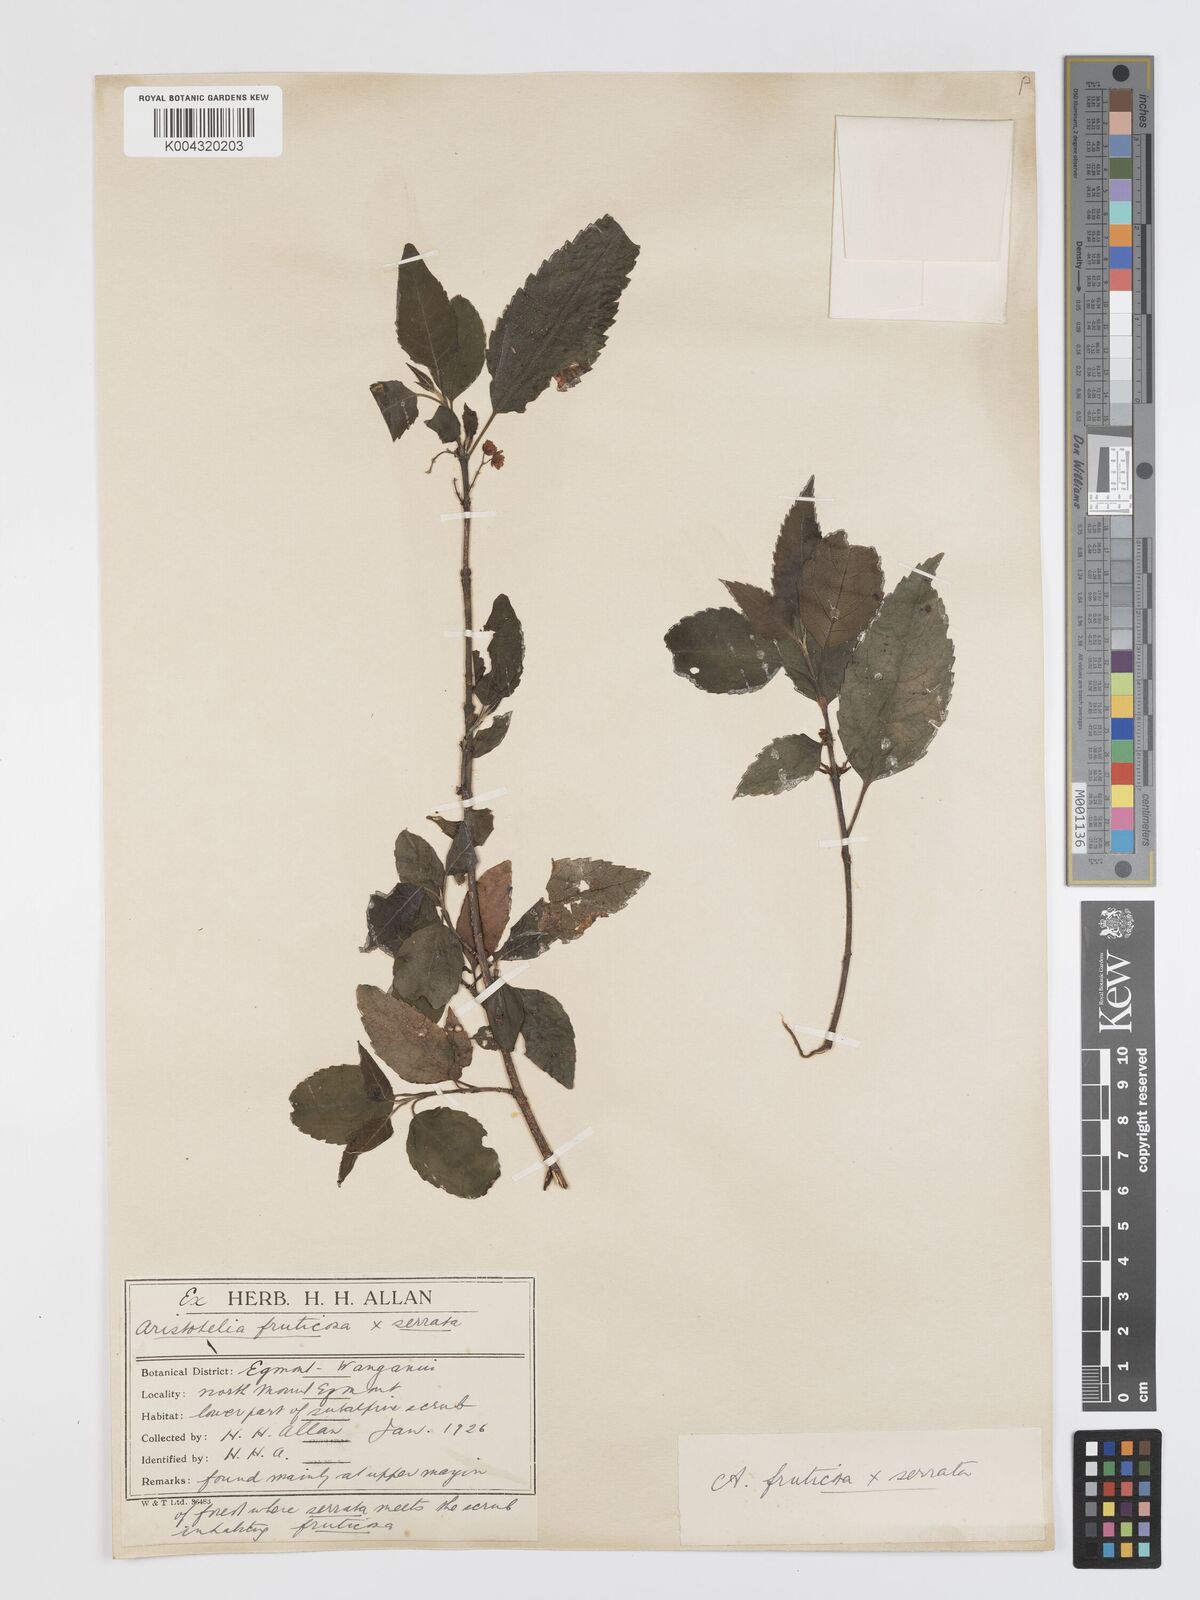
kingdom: Plantae
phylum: Tracheophyta
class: Magnoliopsida
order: Oxalidales
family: Elaeocarpaceae
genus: Aristotelia
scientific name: Aristotelia fruticosa
